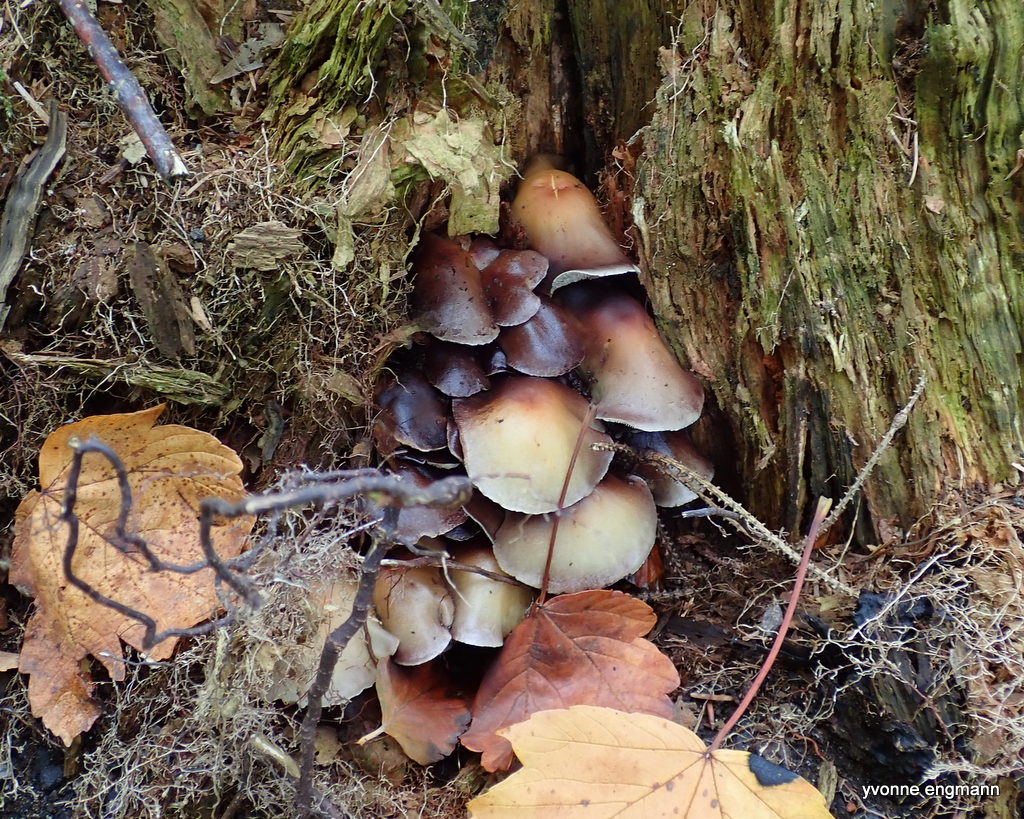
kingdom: Fungi
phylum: Basidiomycota
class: Agaricomycetes
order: Agaricales
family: Strophariaceae
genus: Hypholoma
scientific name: Hypholoma fasciculare
